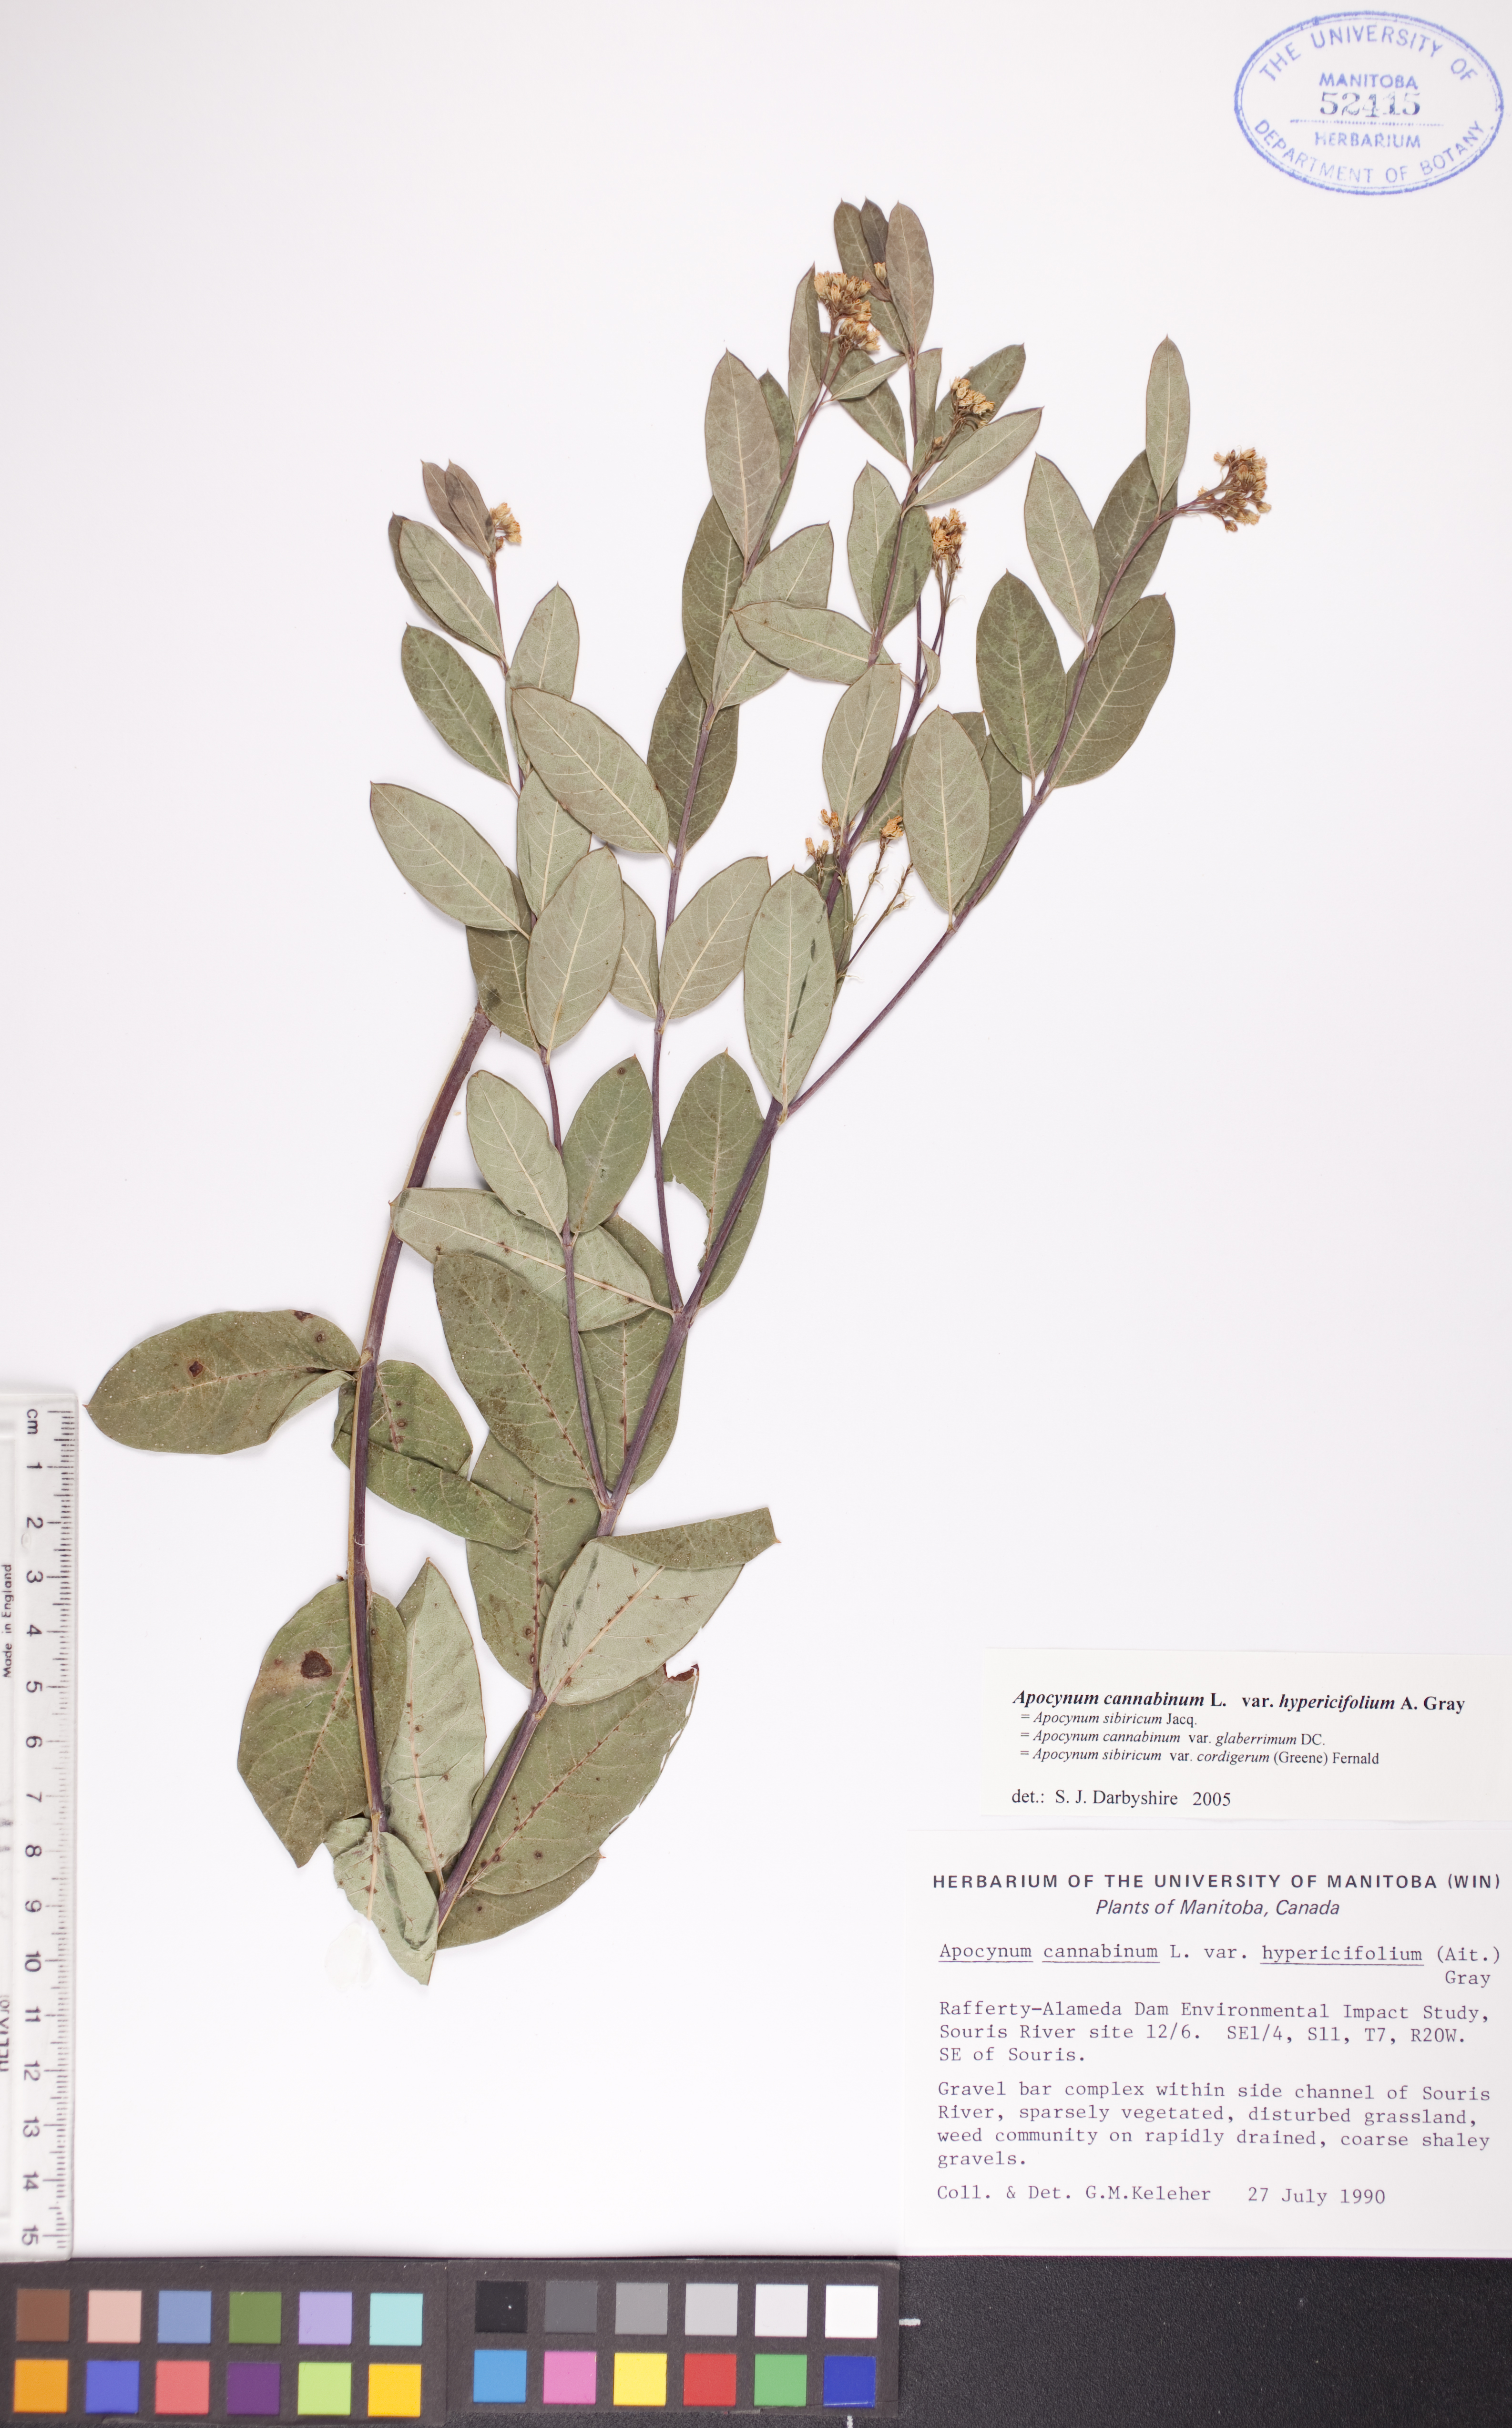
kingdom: Plantae
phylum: Tracheophyta
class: Magnoliopsida
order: Gentianales
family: Apocynaceae
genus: Apocynum
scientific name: Apocynum cannabinum
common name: Hemp dogbane
